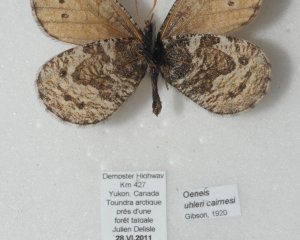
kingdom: Animalia
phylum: Arthropoda
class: Insecta
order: Lepidoptera
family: Nymphalidae
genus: Oeneis
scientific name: Oeneis uhleri
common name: Uhler's Arctic
